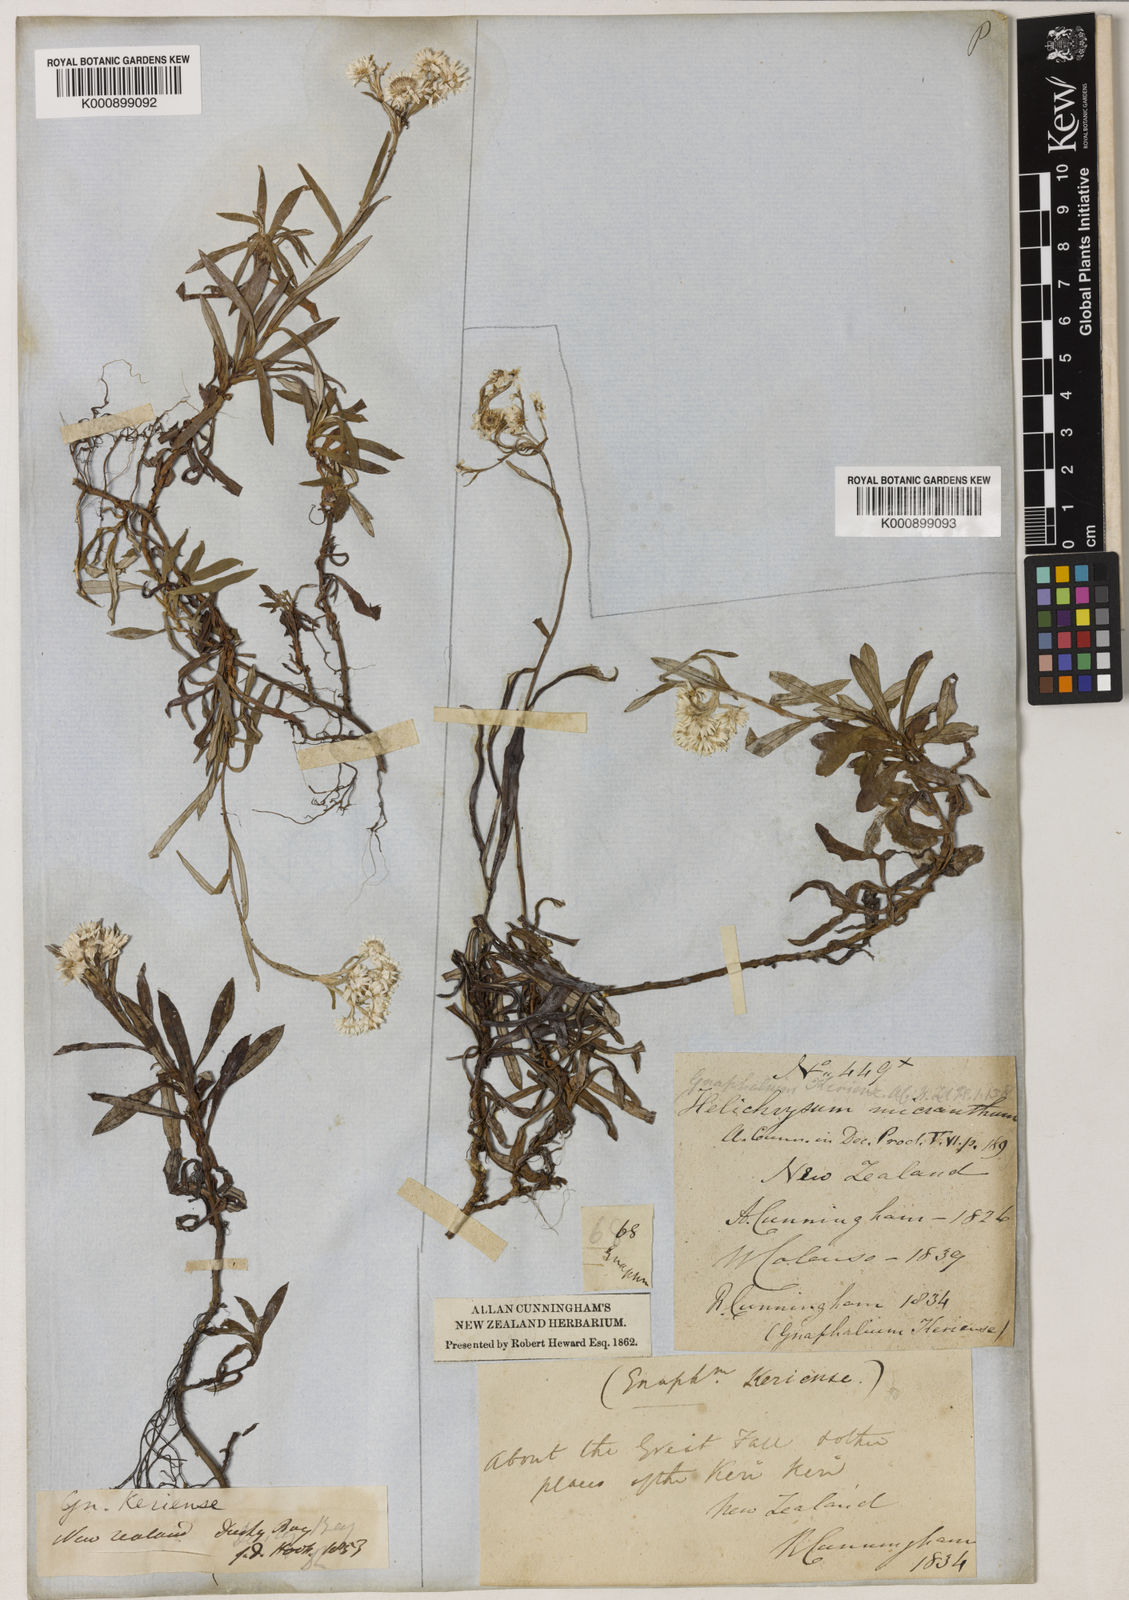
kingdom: Plantae
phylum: Tracheophyta
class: Magnoliopsida
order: Asterales
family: Asteraceae
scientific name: Asteraceae
